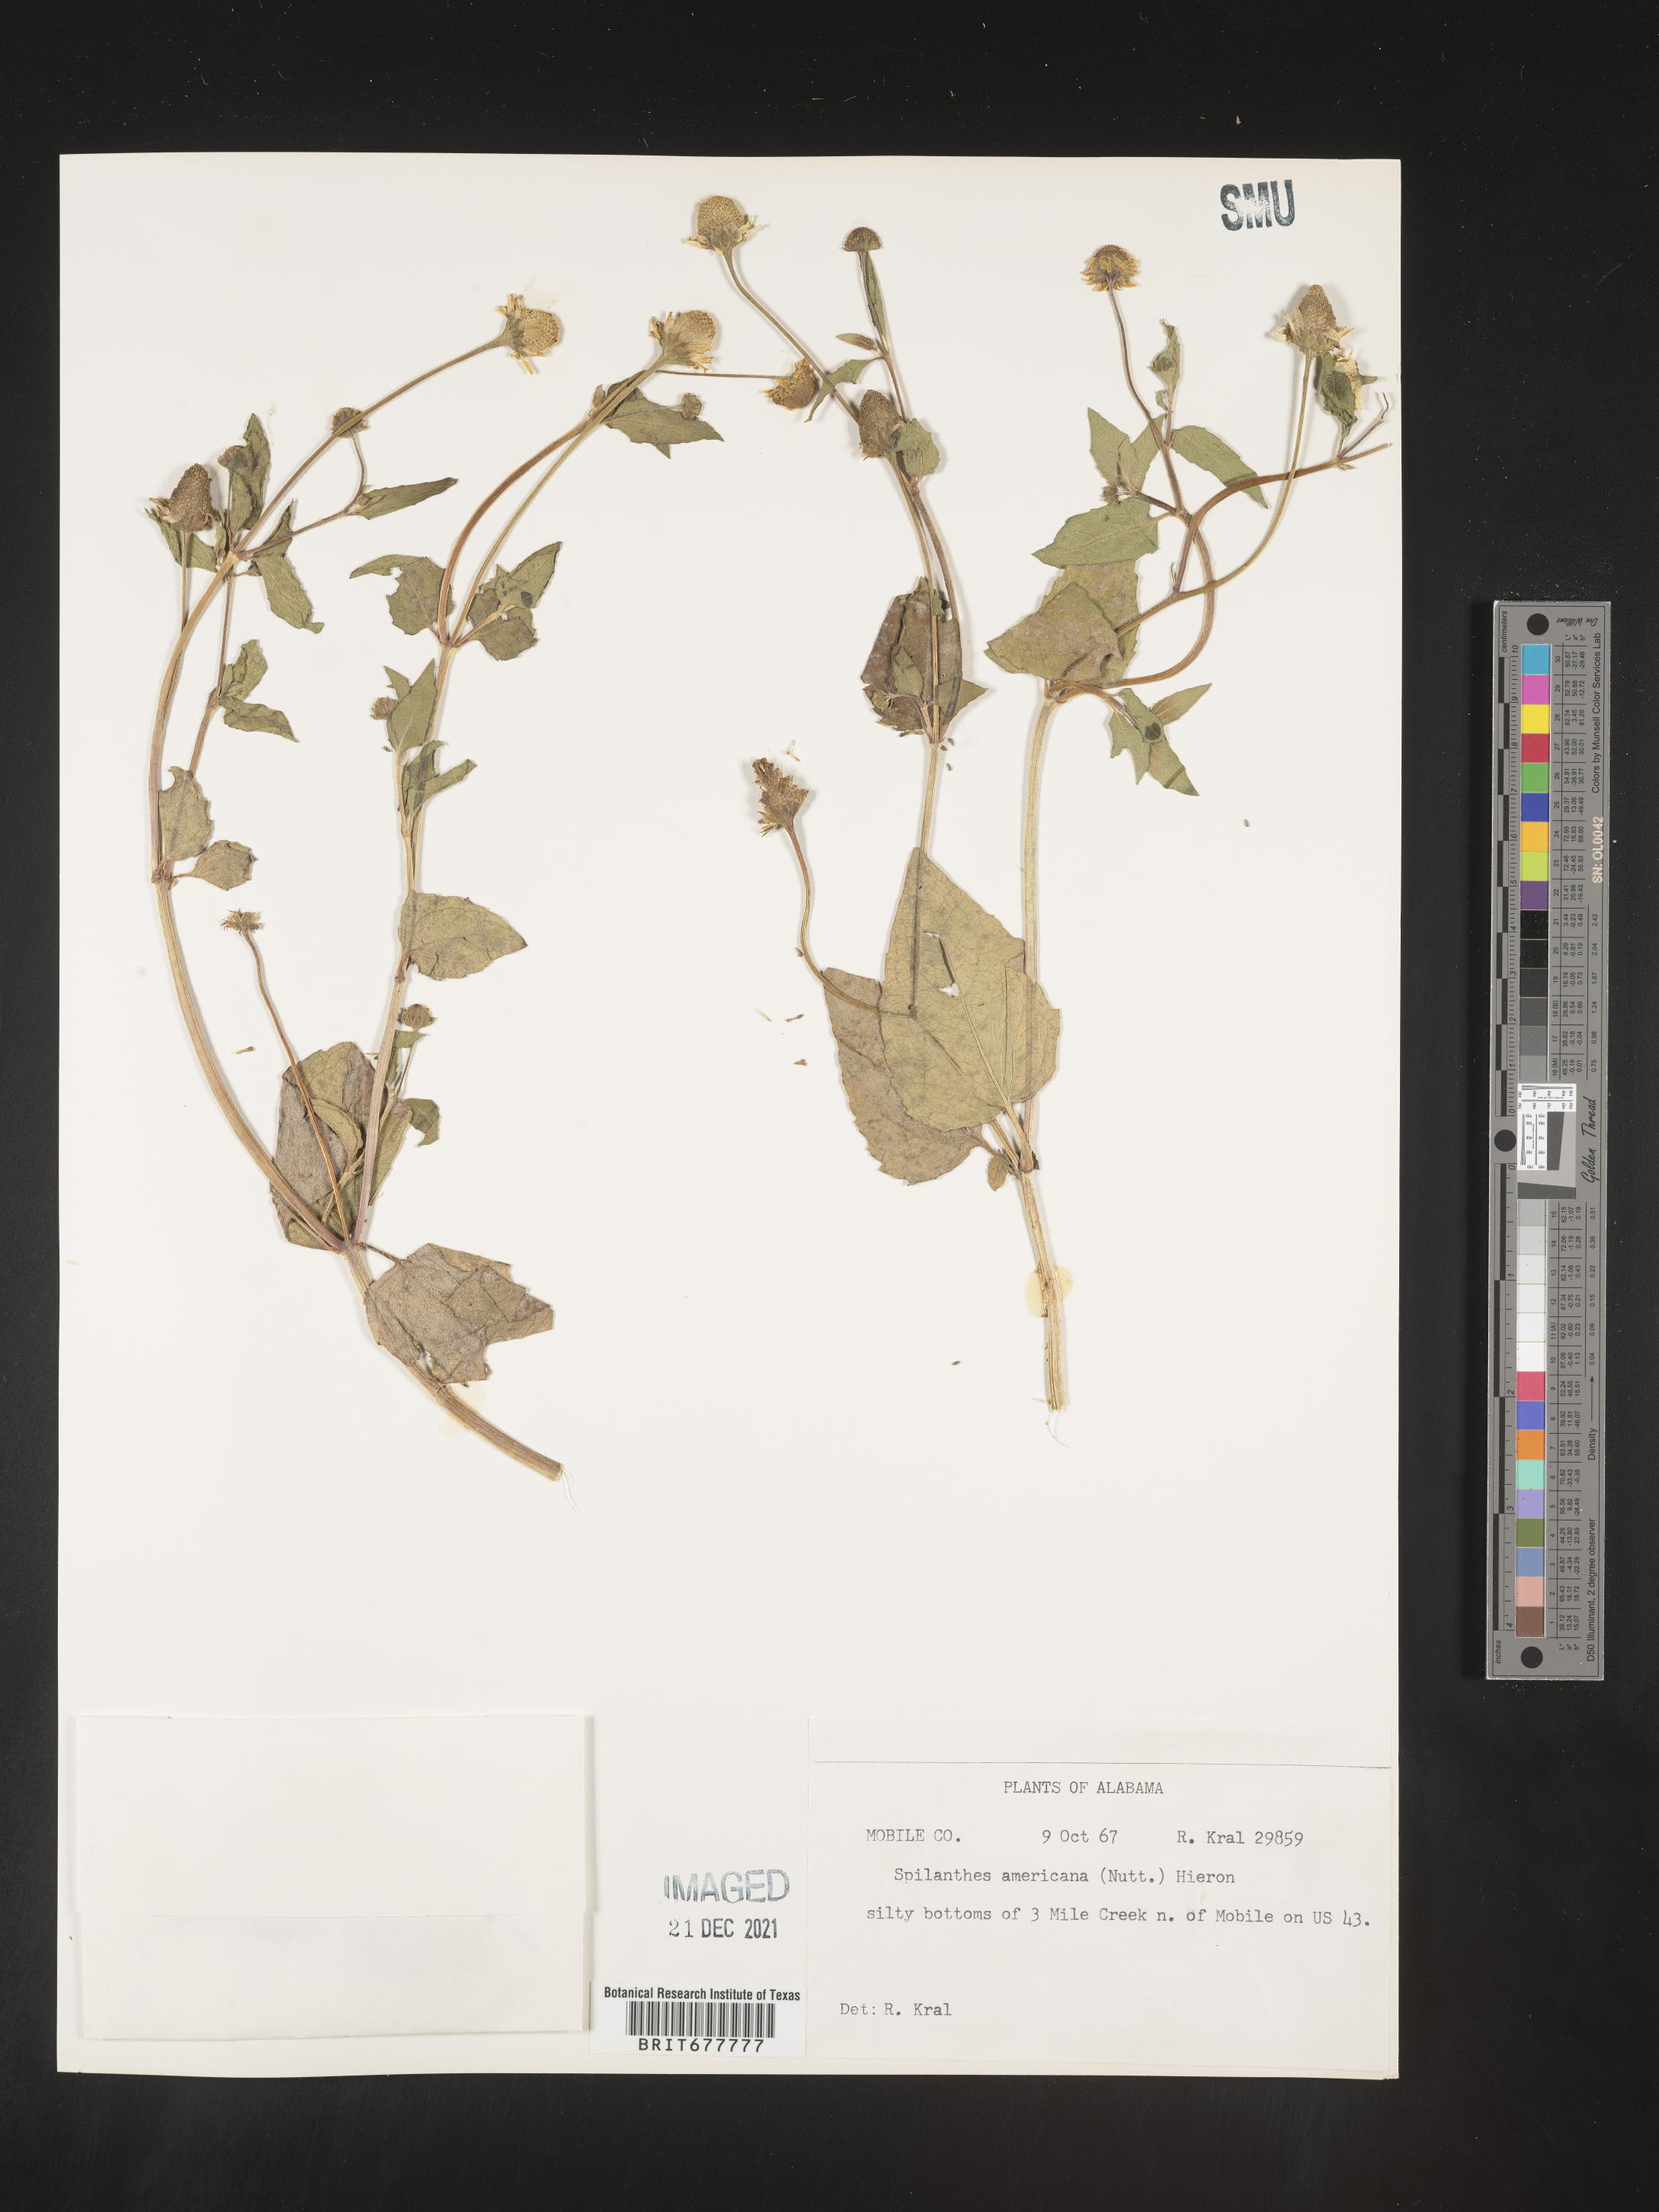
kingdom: Plantae
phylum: Tracheophyta
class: Magnoliopsida
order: Asterales
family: Asteraceae
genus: Spilanthes
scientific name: Spilanthes
